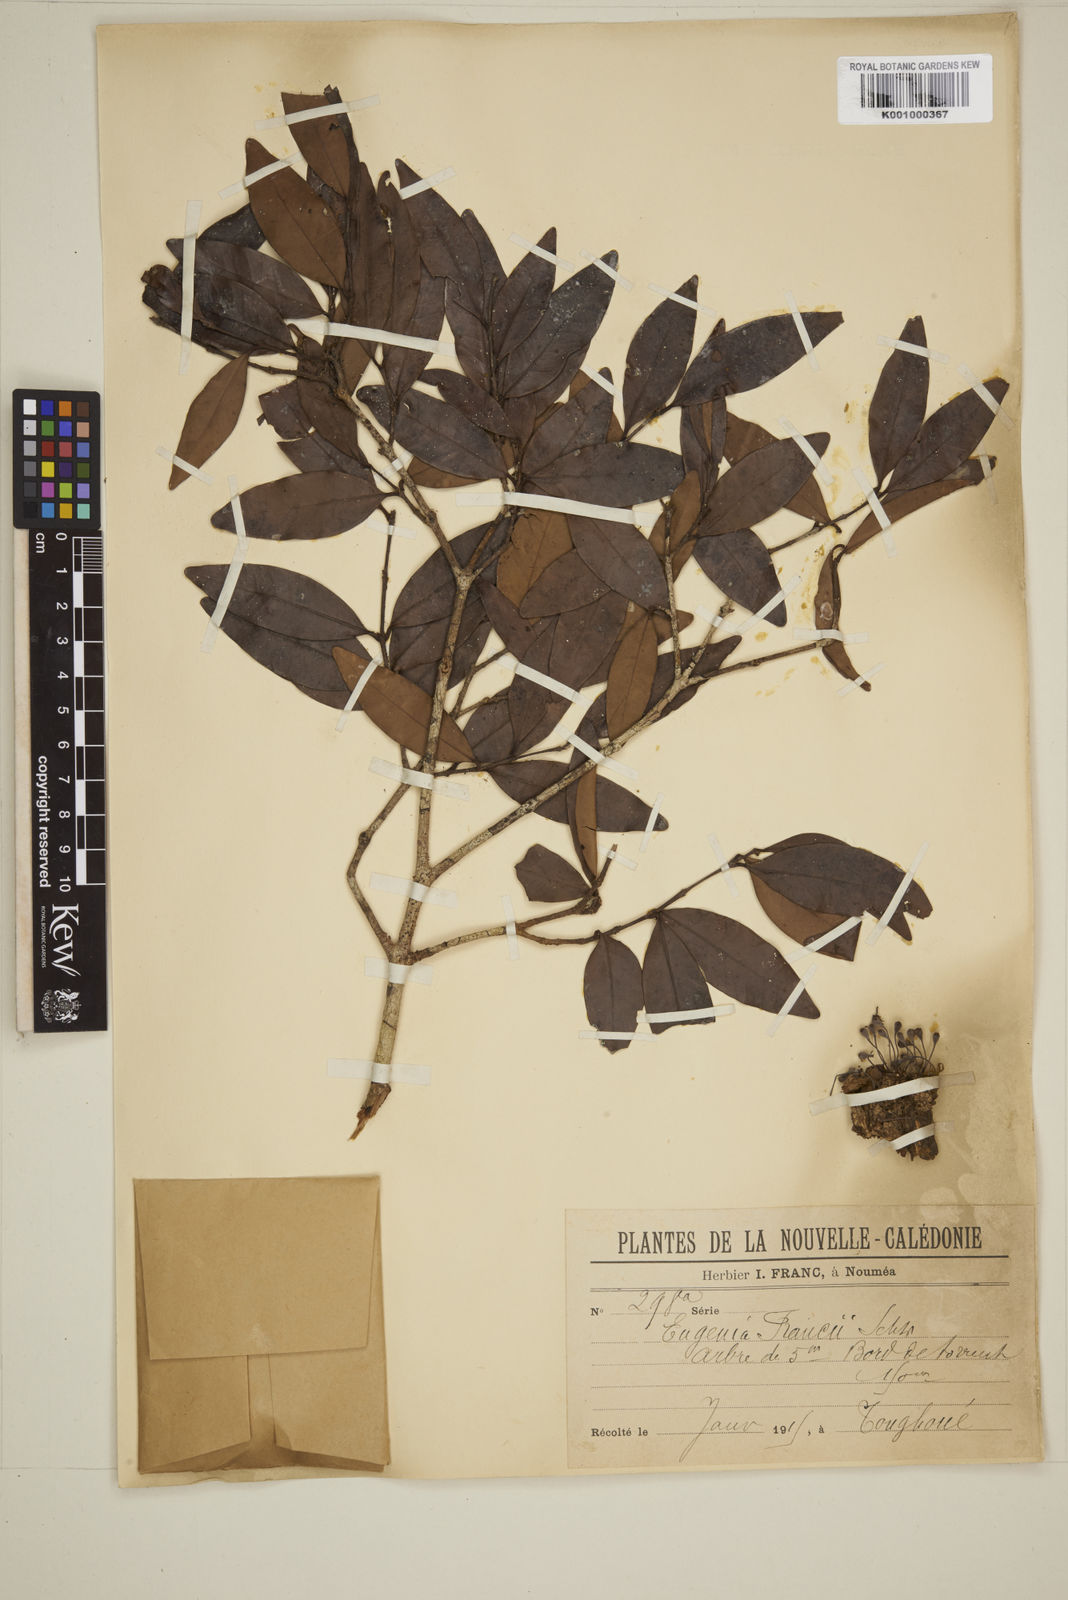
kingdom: Plantae
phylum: Tracheophyta
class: Magnoliopsida
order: Myrtales
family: Myrtaceae
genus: Eugenia
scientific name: Eugenia
